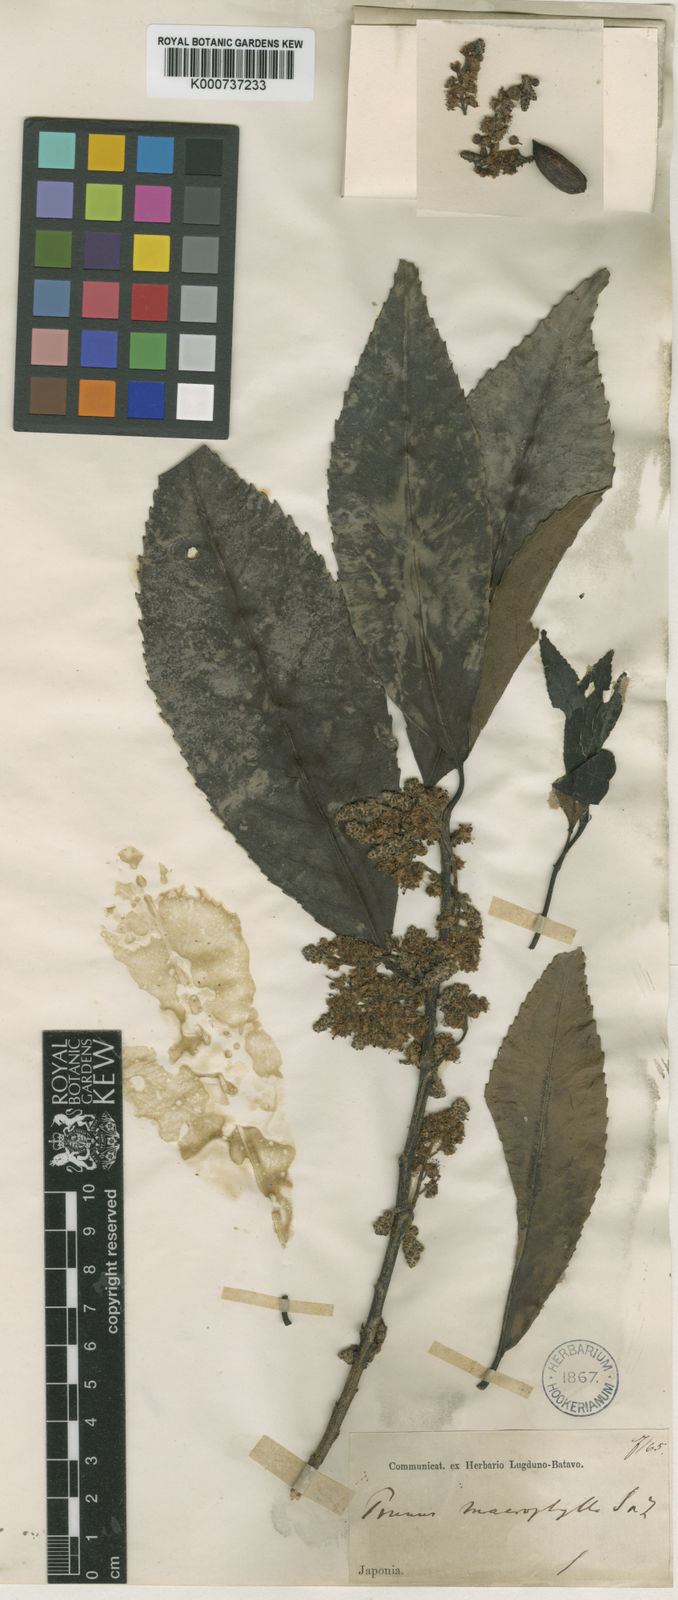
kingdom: Plantae
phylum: Tracheophyta
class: Magnoliopsida
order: Rosales
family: Rosaceae
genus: Prunus
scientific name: Prunus zippeliana
